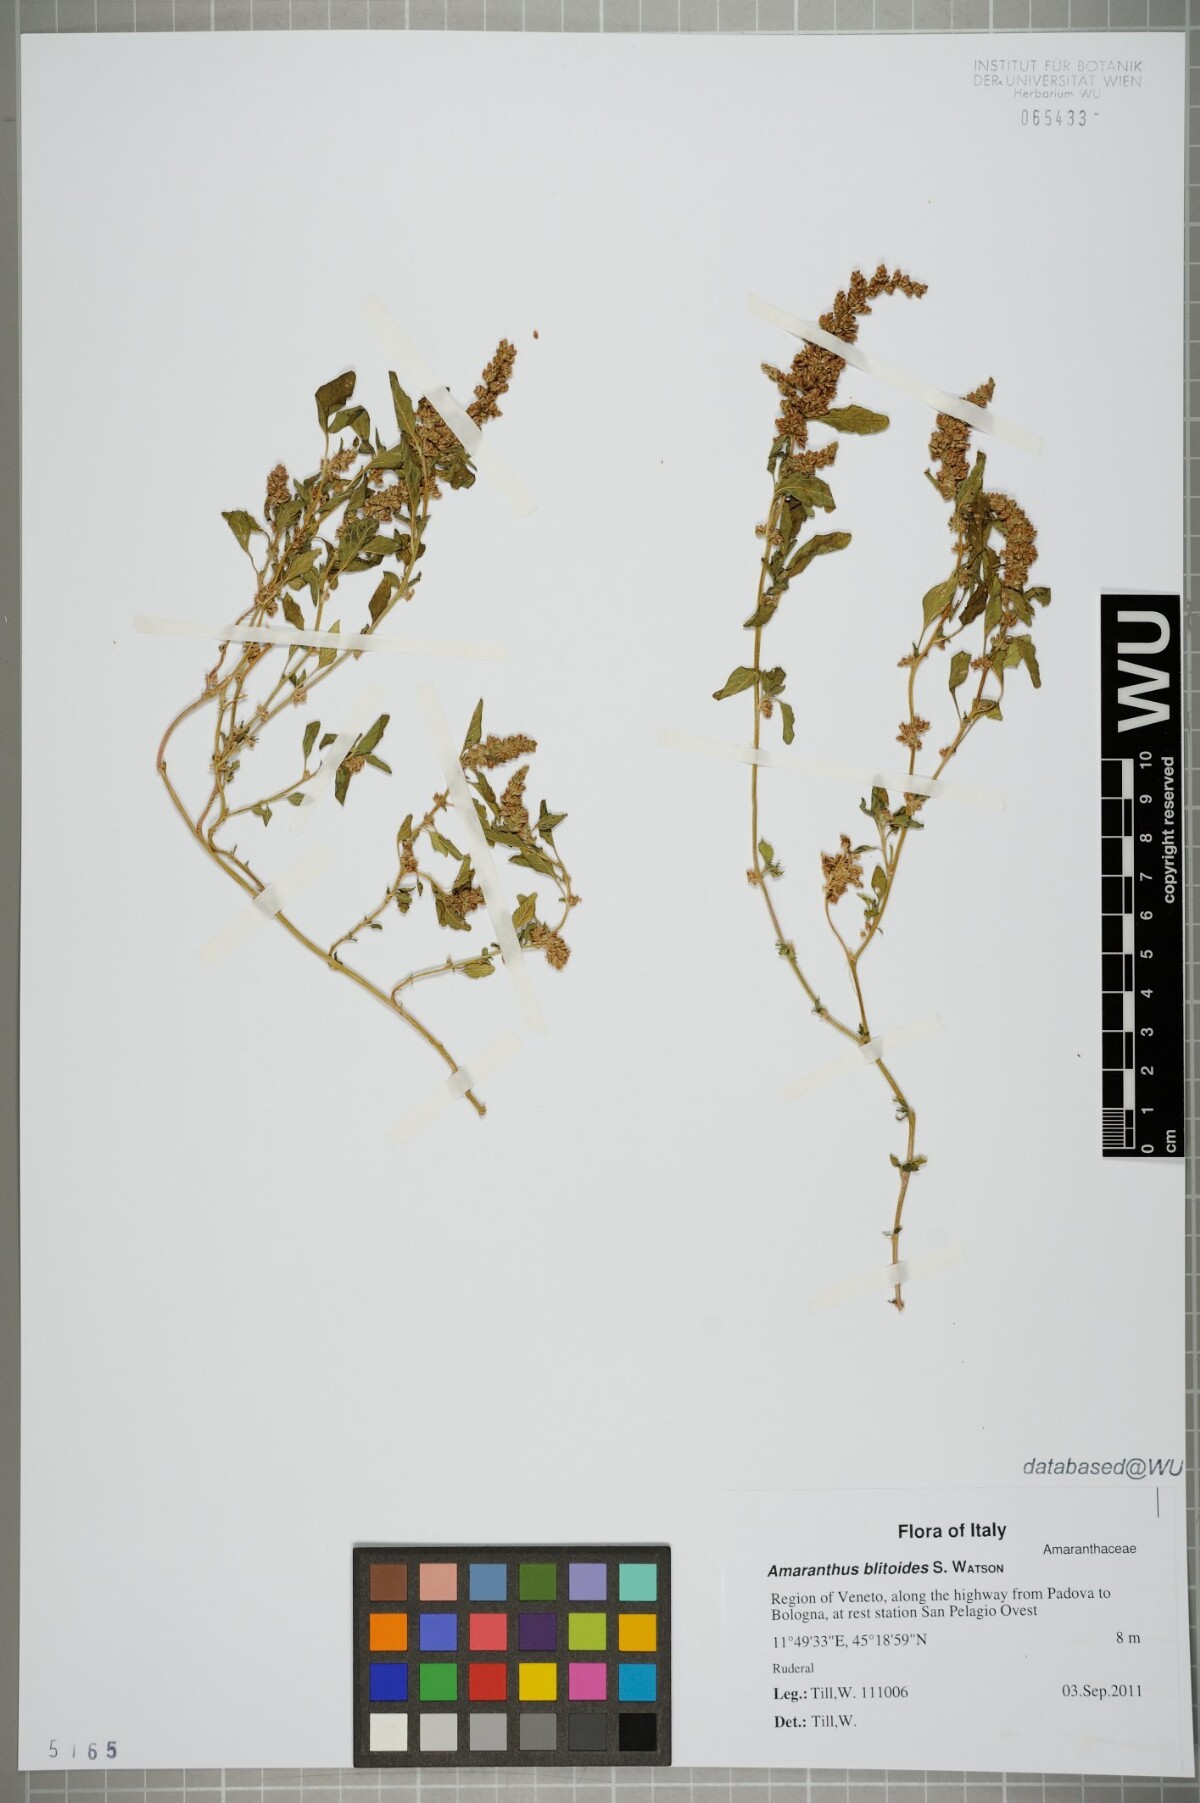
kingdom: Plantae
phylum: Tracheophyta
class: Magnoliopsida
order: Caryophyllales
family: Amaranthaceae
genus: Amaranthus
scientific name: Amaranthus blitoides
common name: Prostrate pigweed
